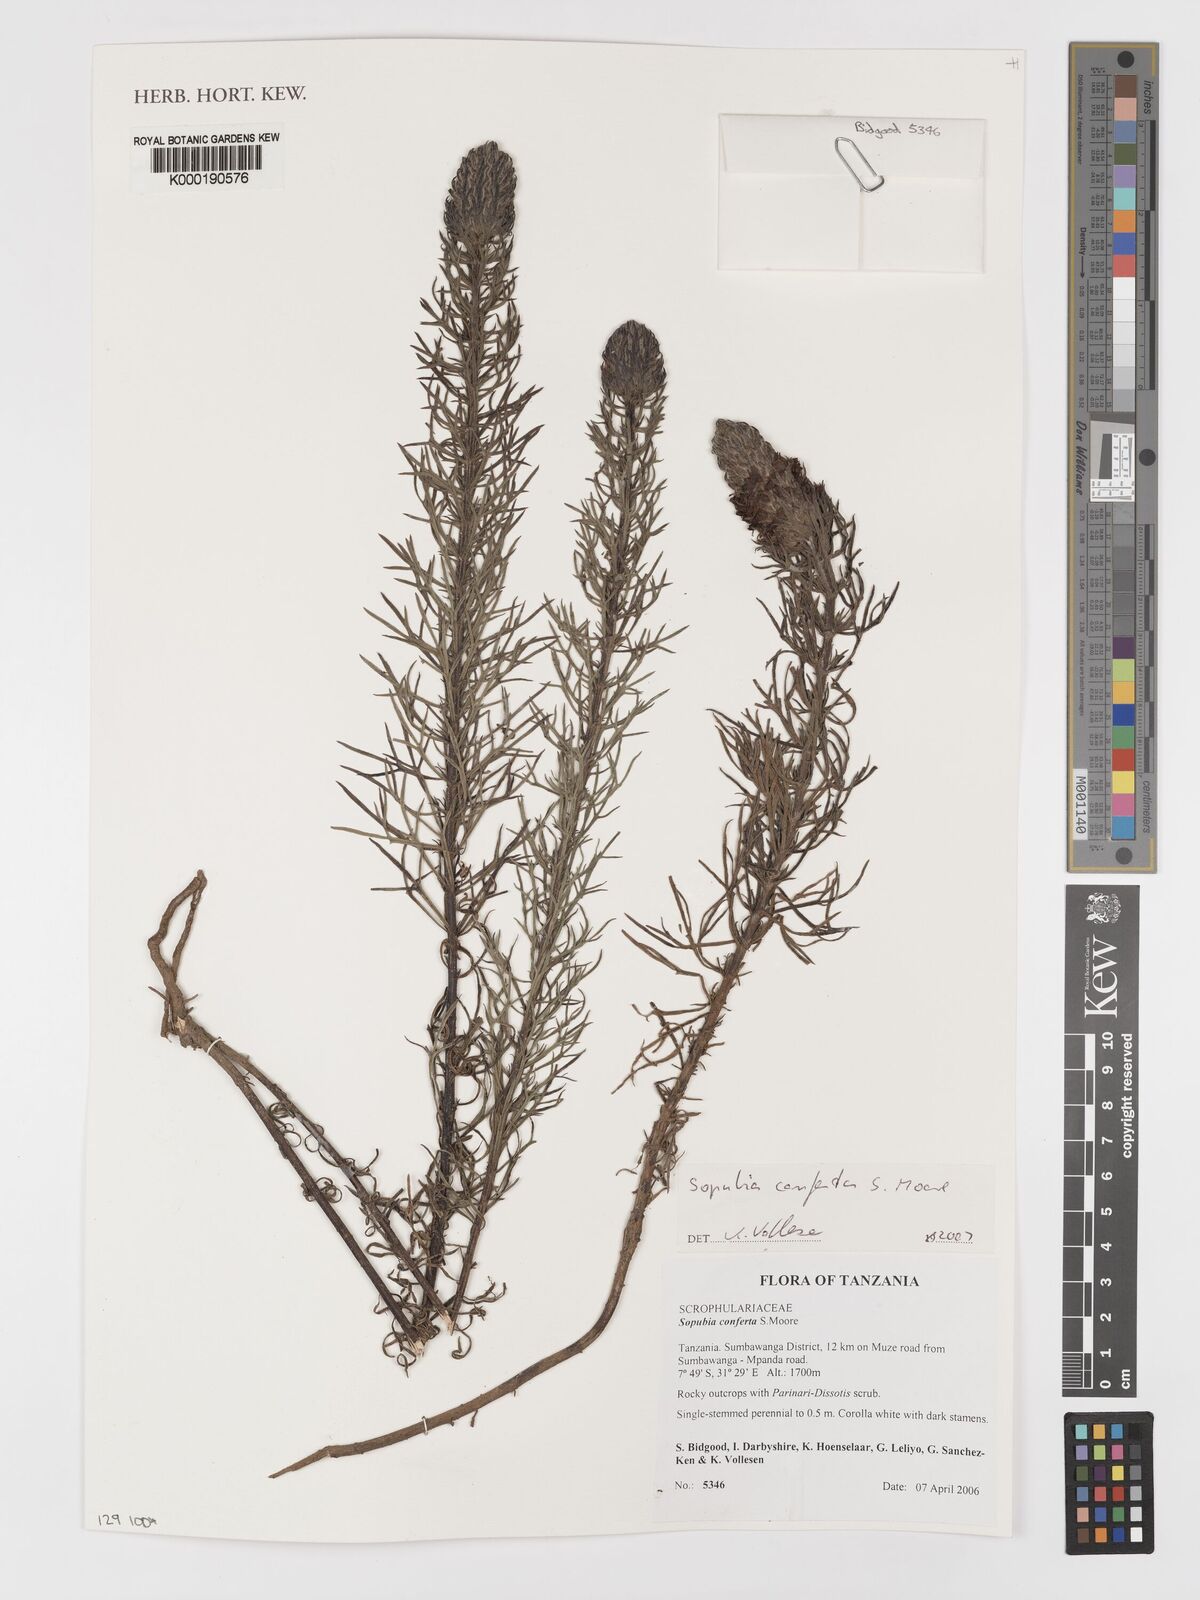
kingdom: Plantae
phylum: Tracheophyta
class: Magnoliopsida
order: Lamiales
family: Orobanchaceae
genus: Sopubia
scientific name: Sopubia conferta
